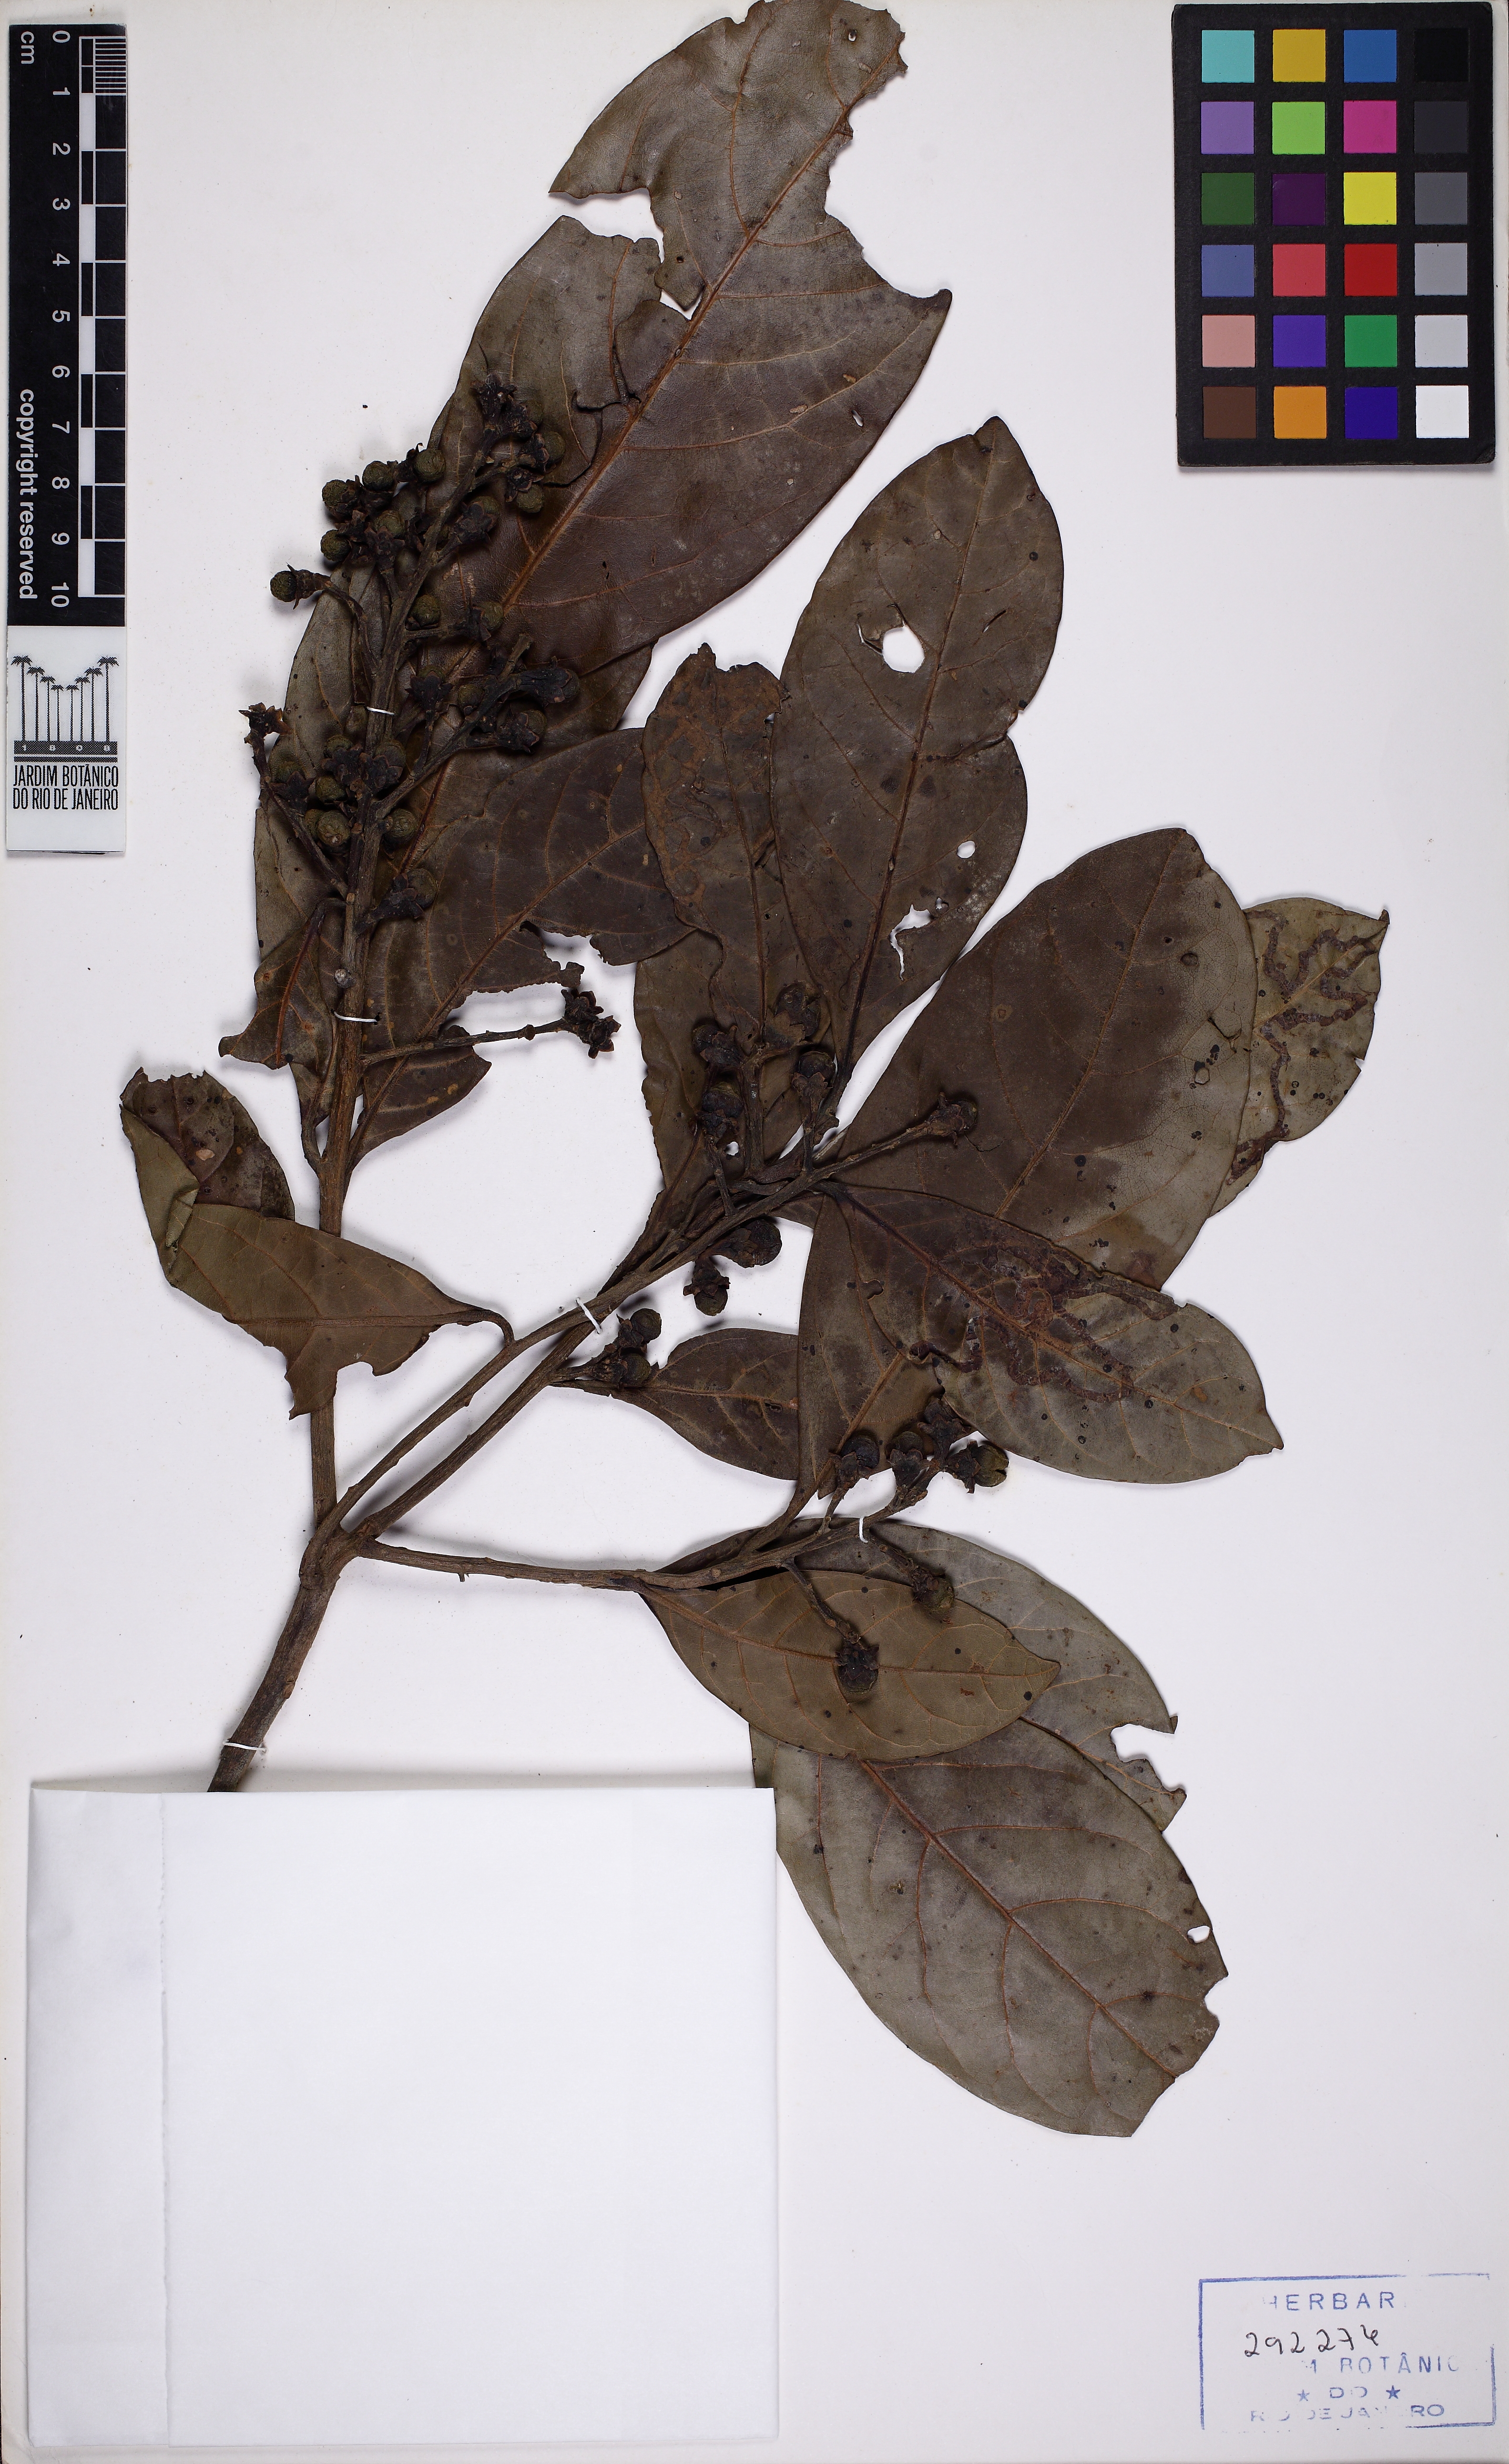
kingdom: Plantae
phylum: Tracheophyta
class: Magnoliopsida
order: Laurales
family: Lauraceae
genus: Ocotea
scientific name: Ocotea glaziovii
